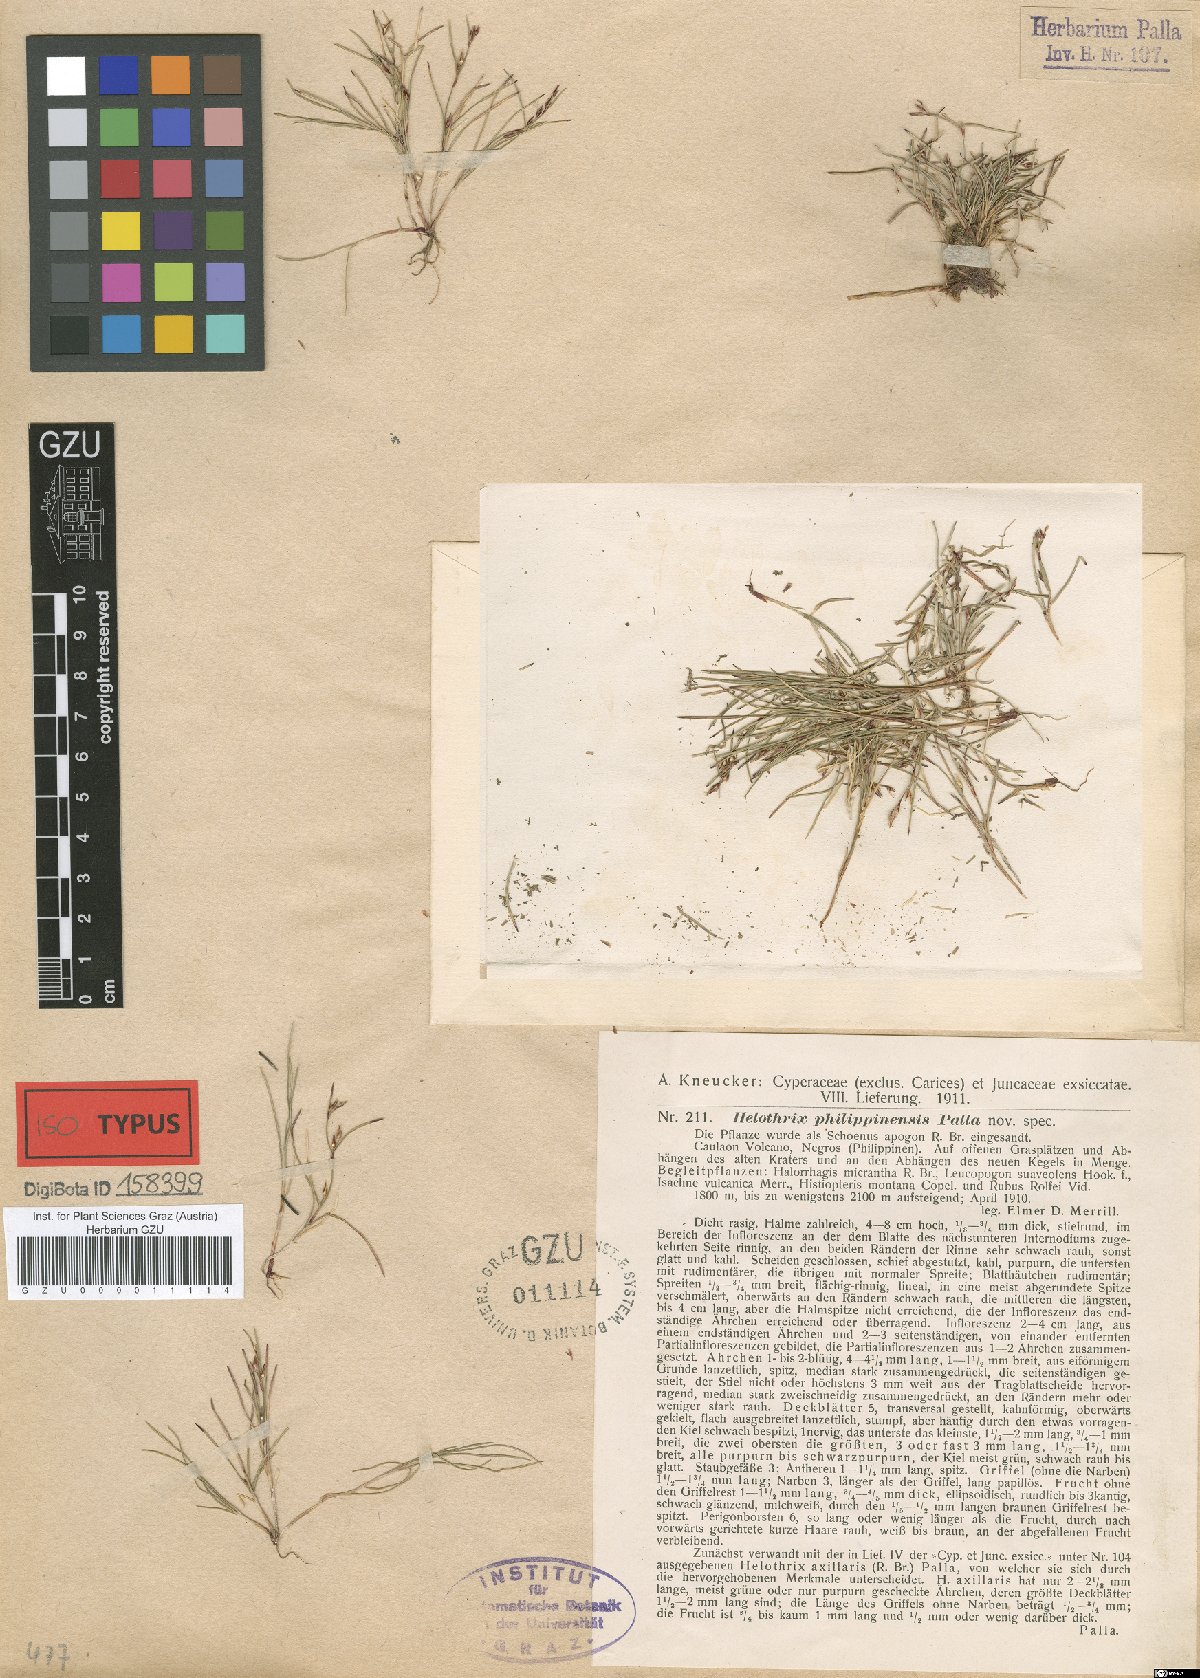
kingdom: Plantae
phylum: Tracheophyta
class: Liliopsida
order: Poales
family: Cyperaceae
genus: Schoenus
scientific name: Schoenus maschalinus
